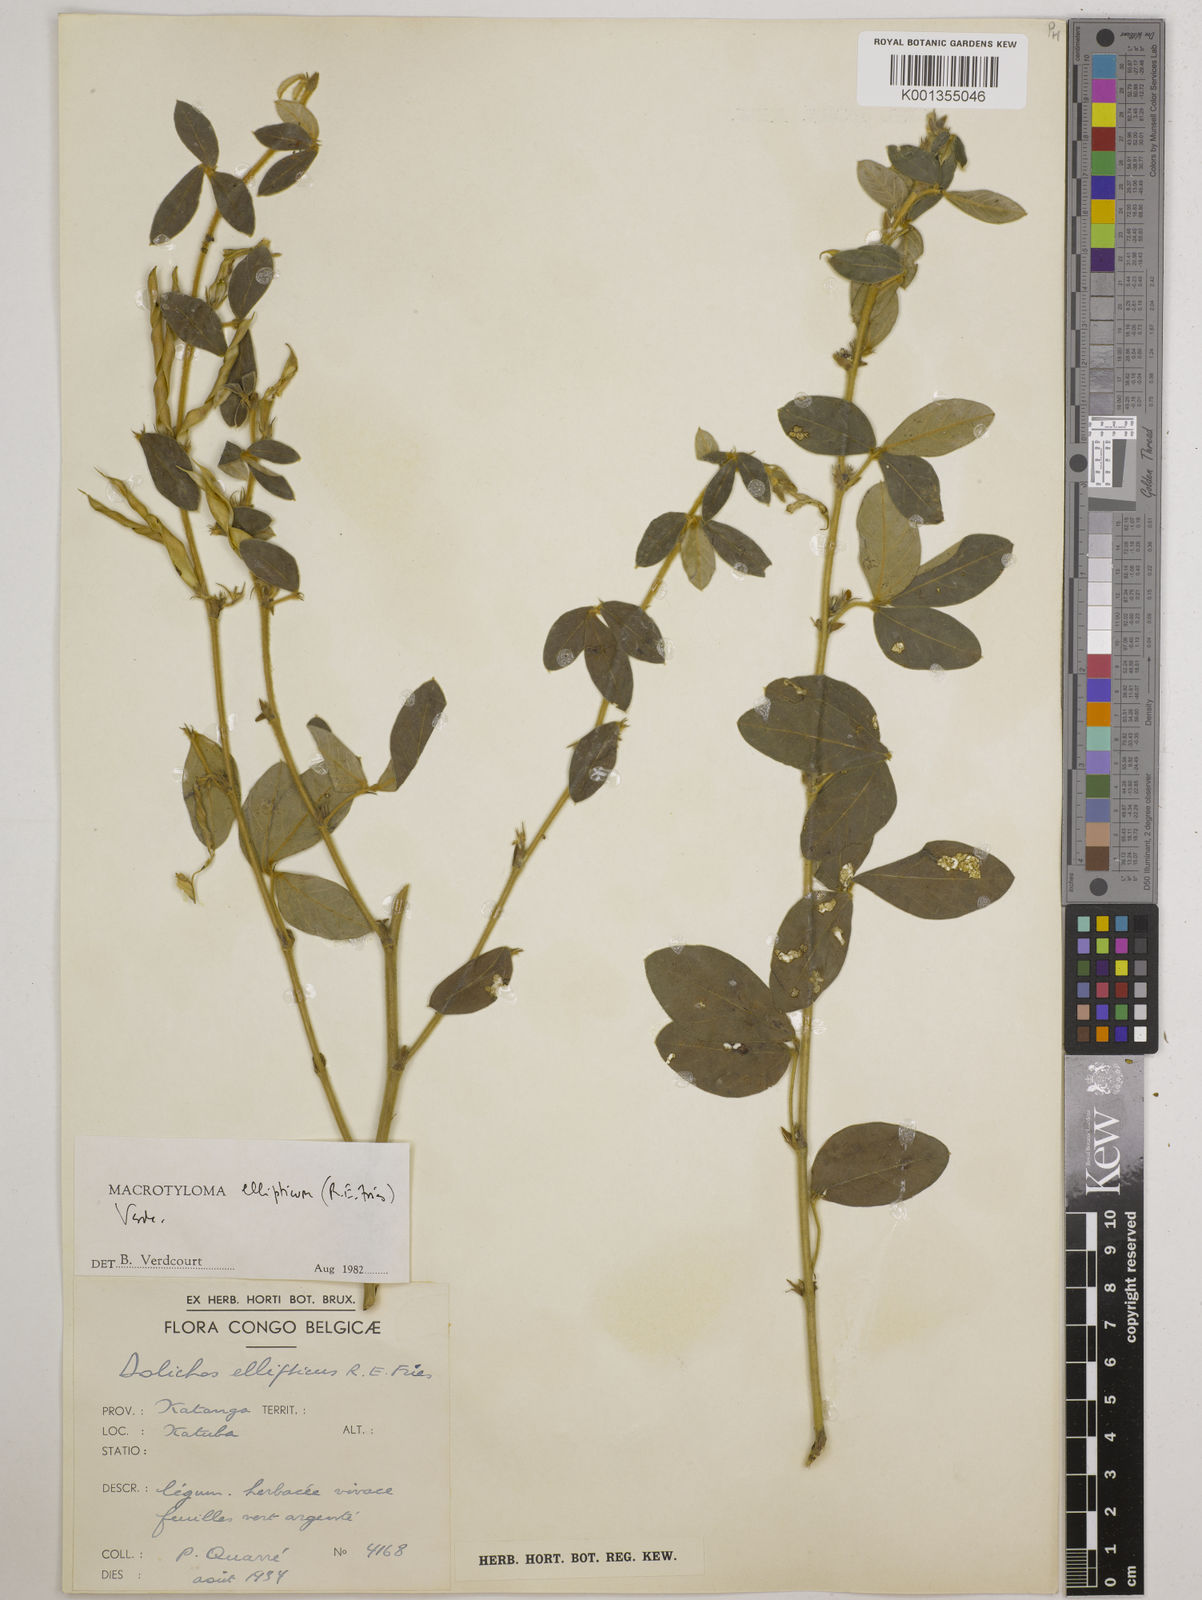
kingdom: Plantae
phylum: Tracheophyta
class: Magnoliopsida
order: Fabales
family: Fabaceae
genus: Macrotyloma
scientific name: Macrotyloma ellipticum
